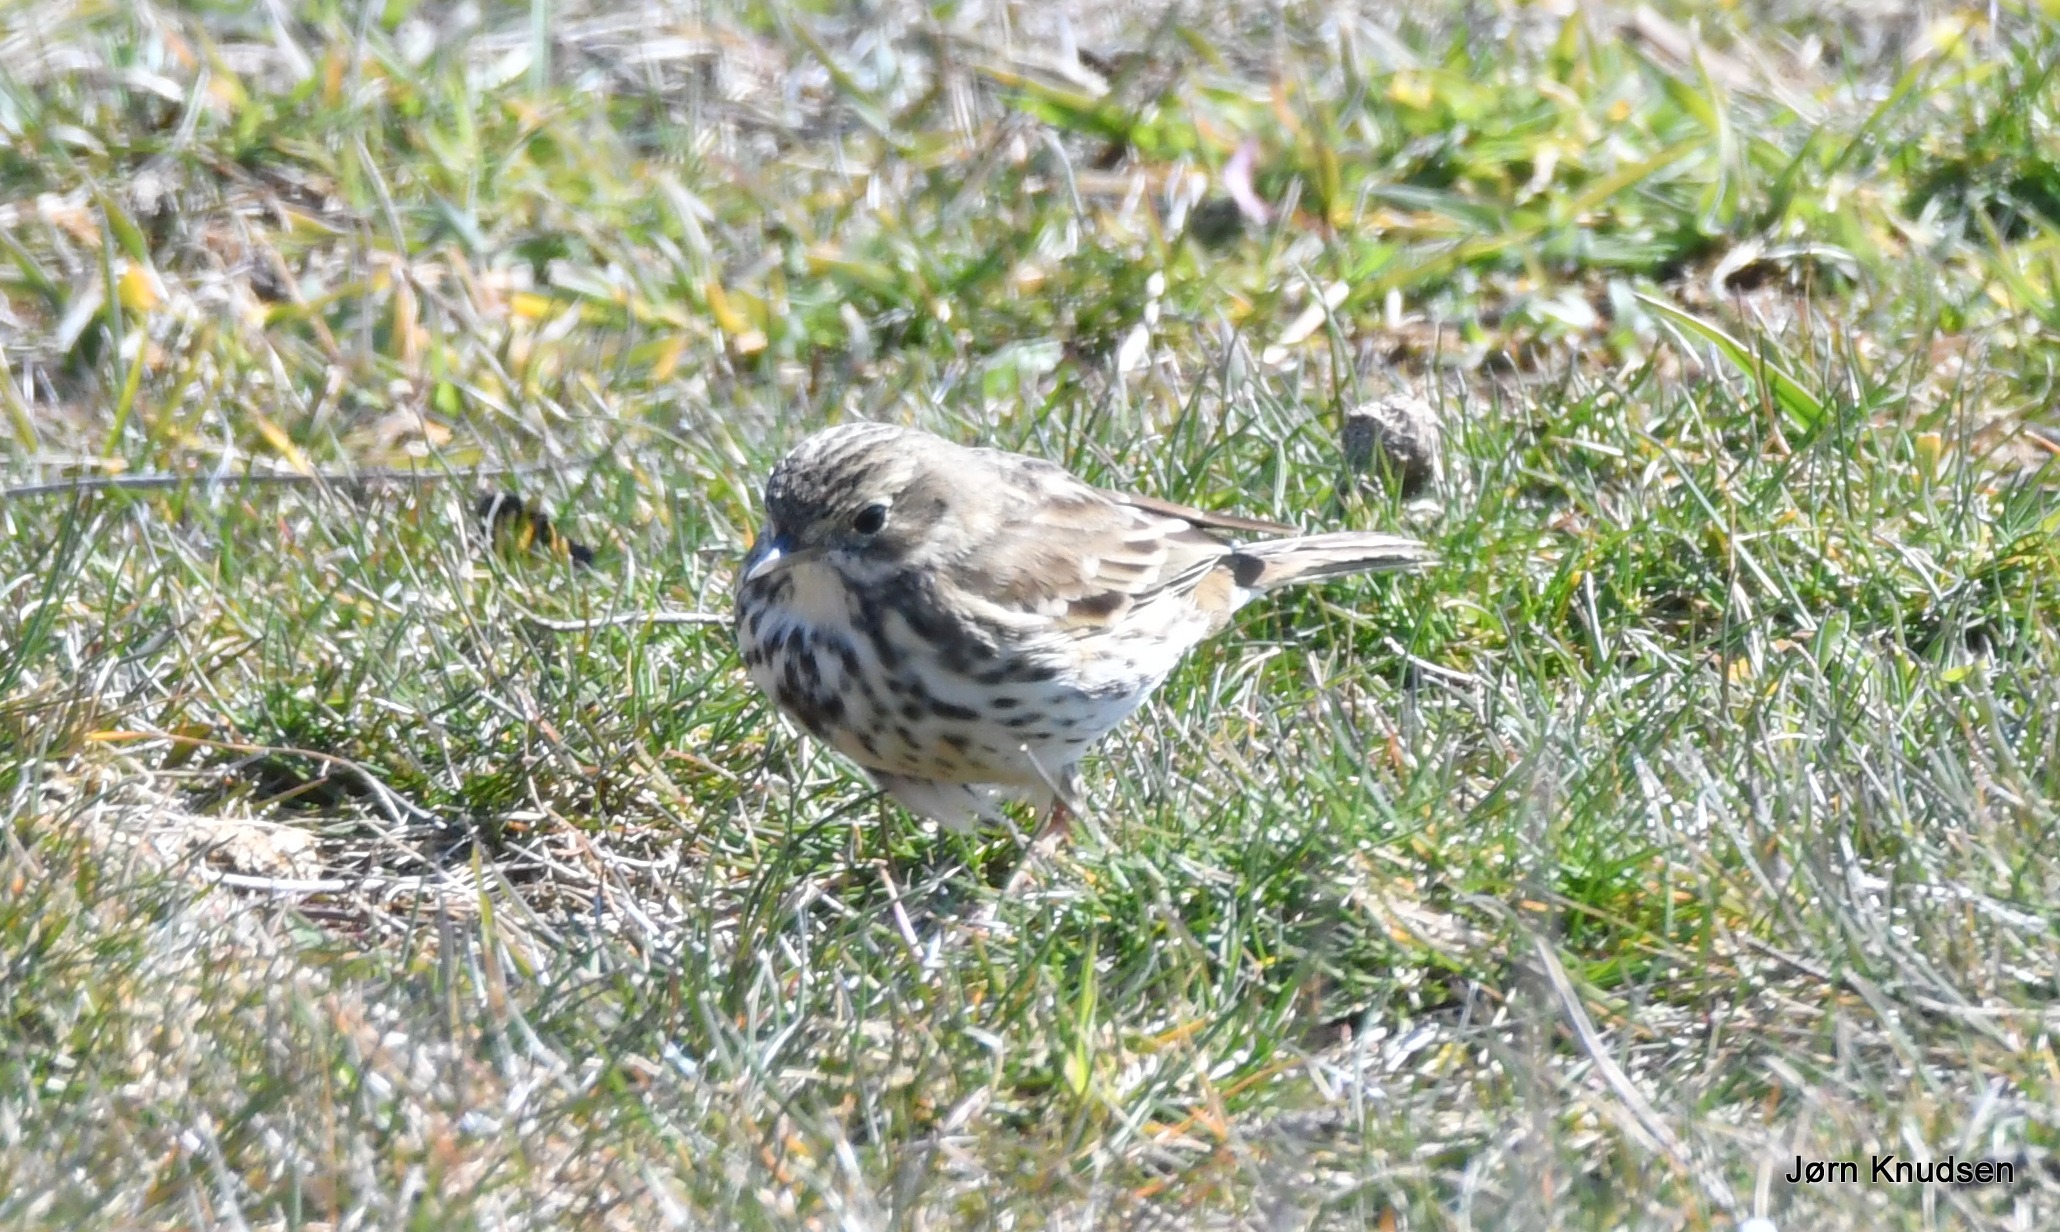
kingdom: Animalia
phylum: Chordata
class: Aves
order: Passeriformes
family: Motacillidae
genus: Anthus
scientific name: Anthus pratensis
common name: Engpiber
